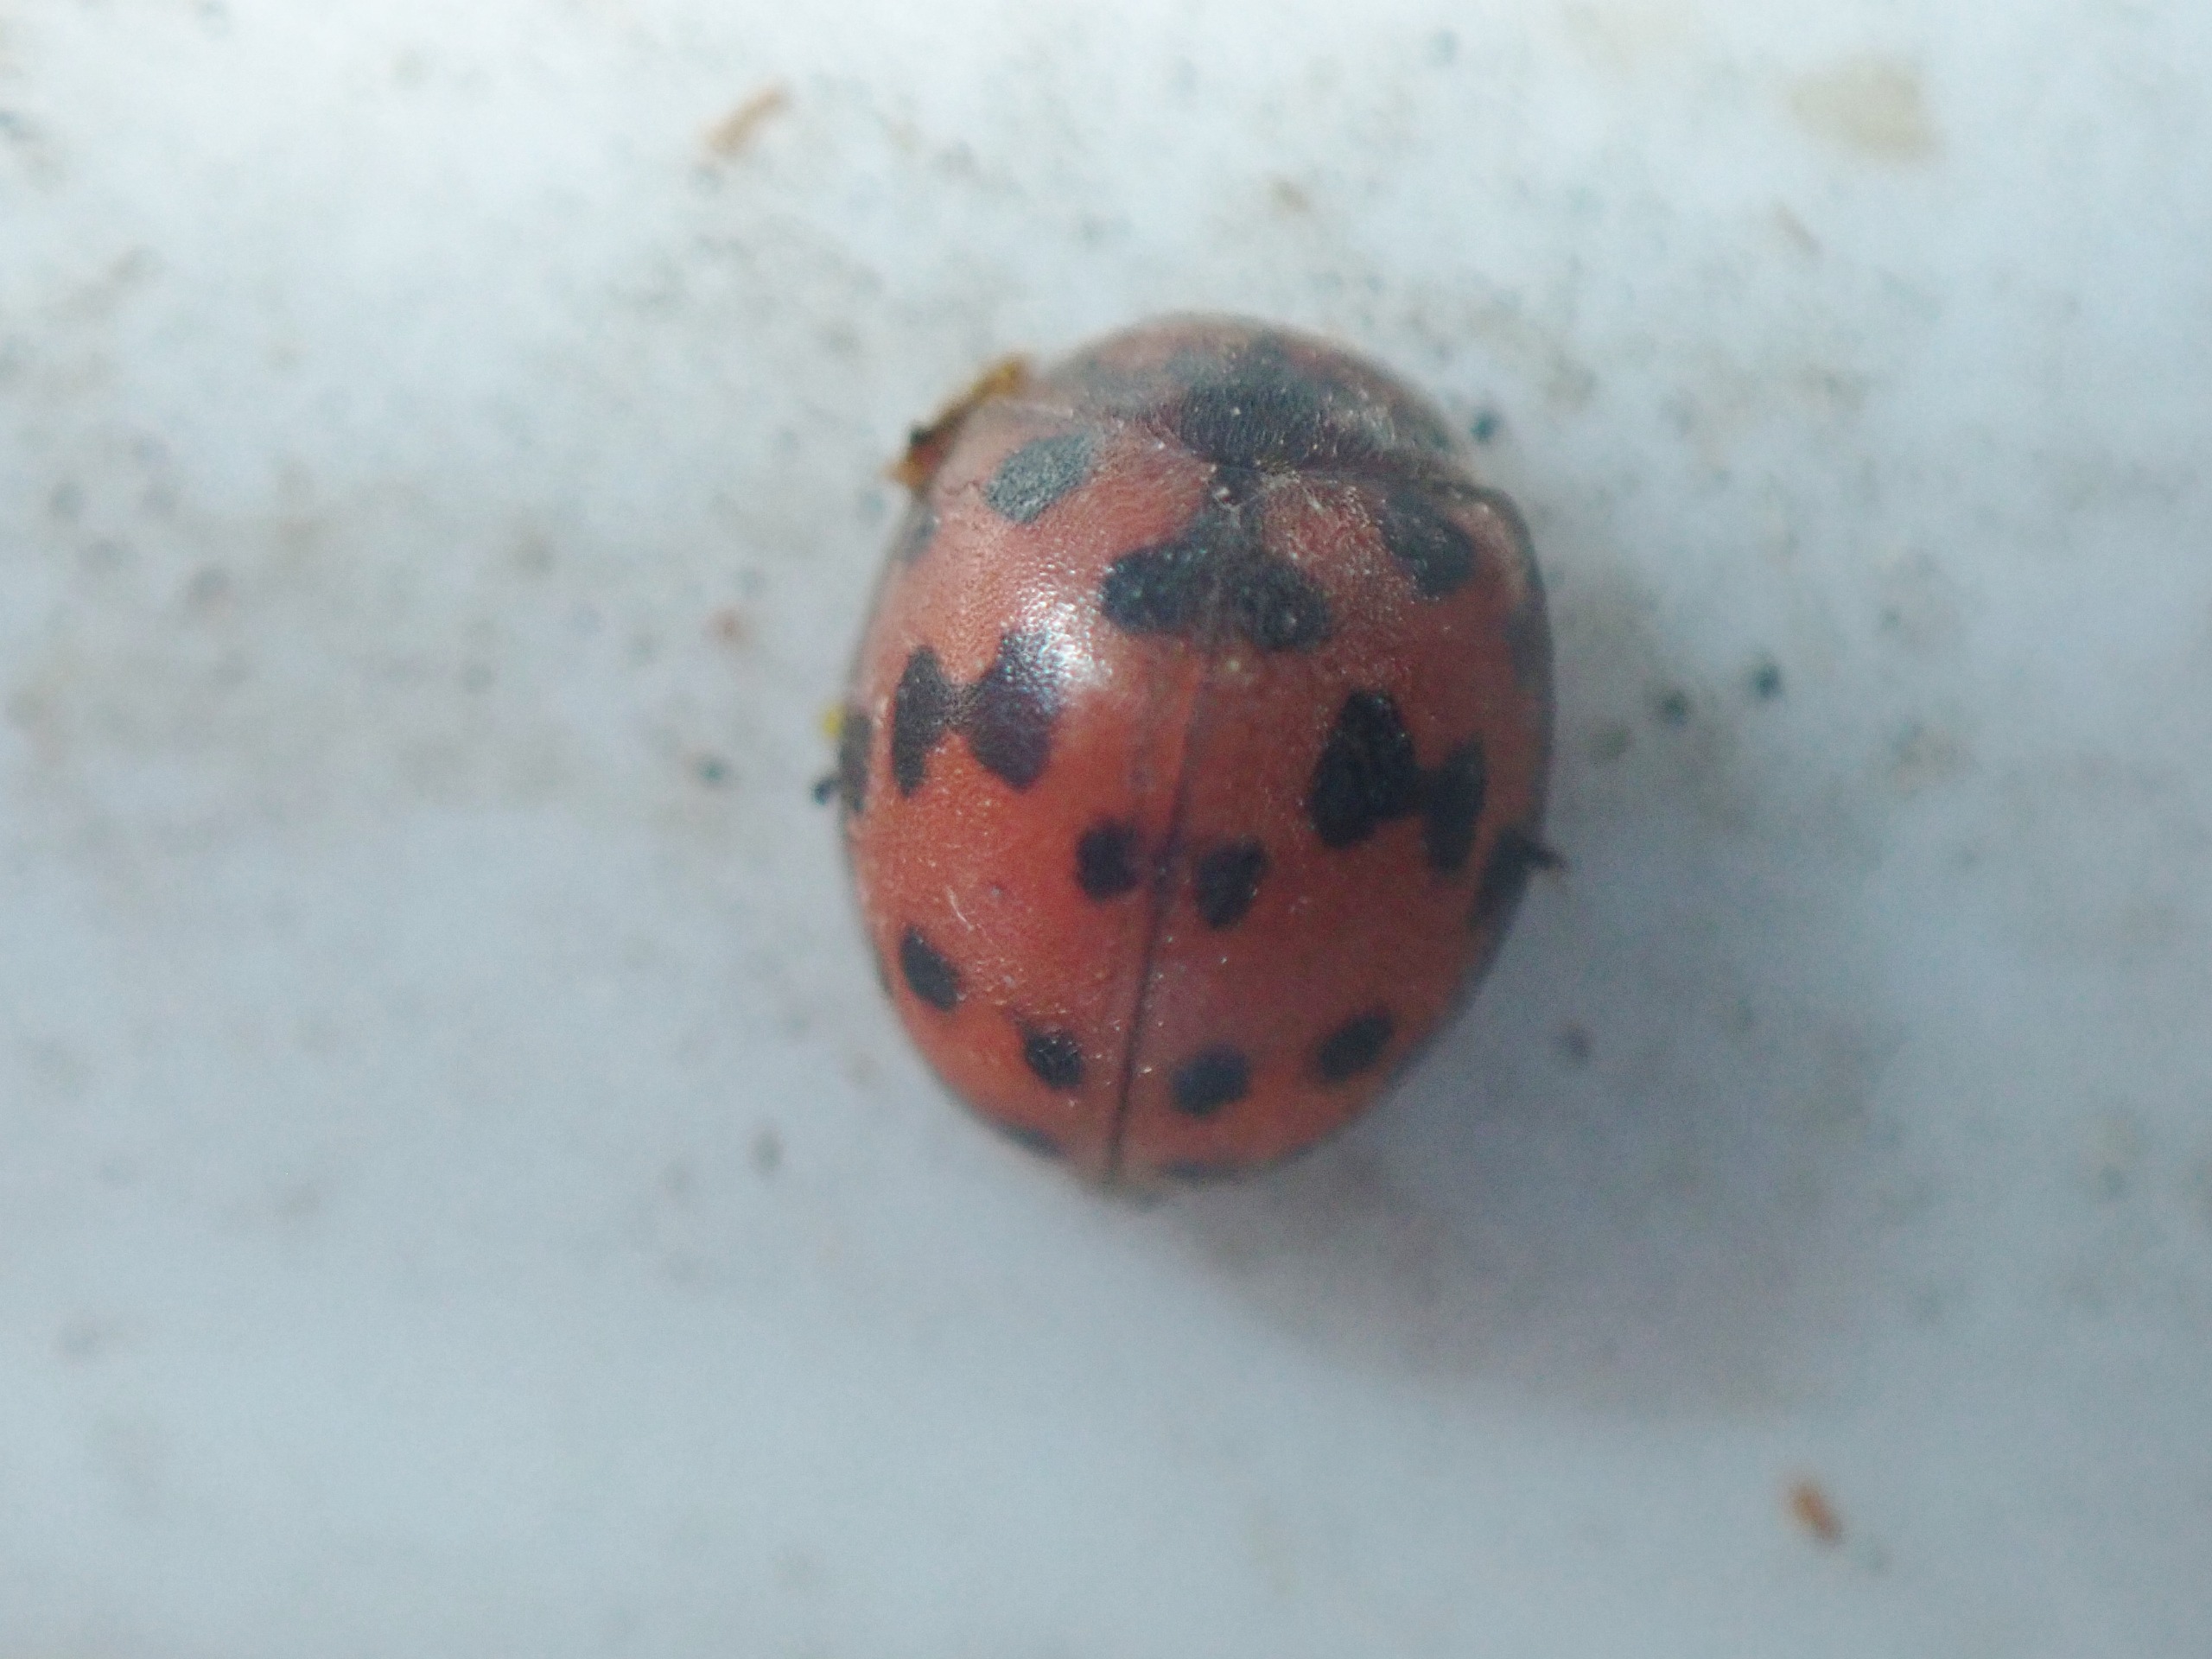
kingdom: Animalia
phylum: Arthropoda
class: Insecta
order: Coleoptera
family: Coccinellidae
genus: Subcoccinella
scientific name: Subcoccinella vigintiquatuorpunctata
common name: Fireogtyveplettet mariehøne
